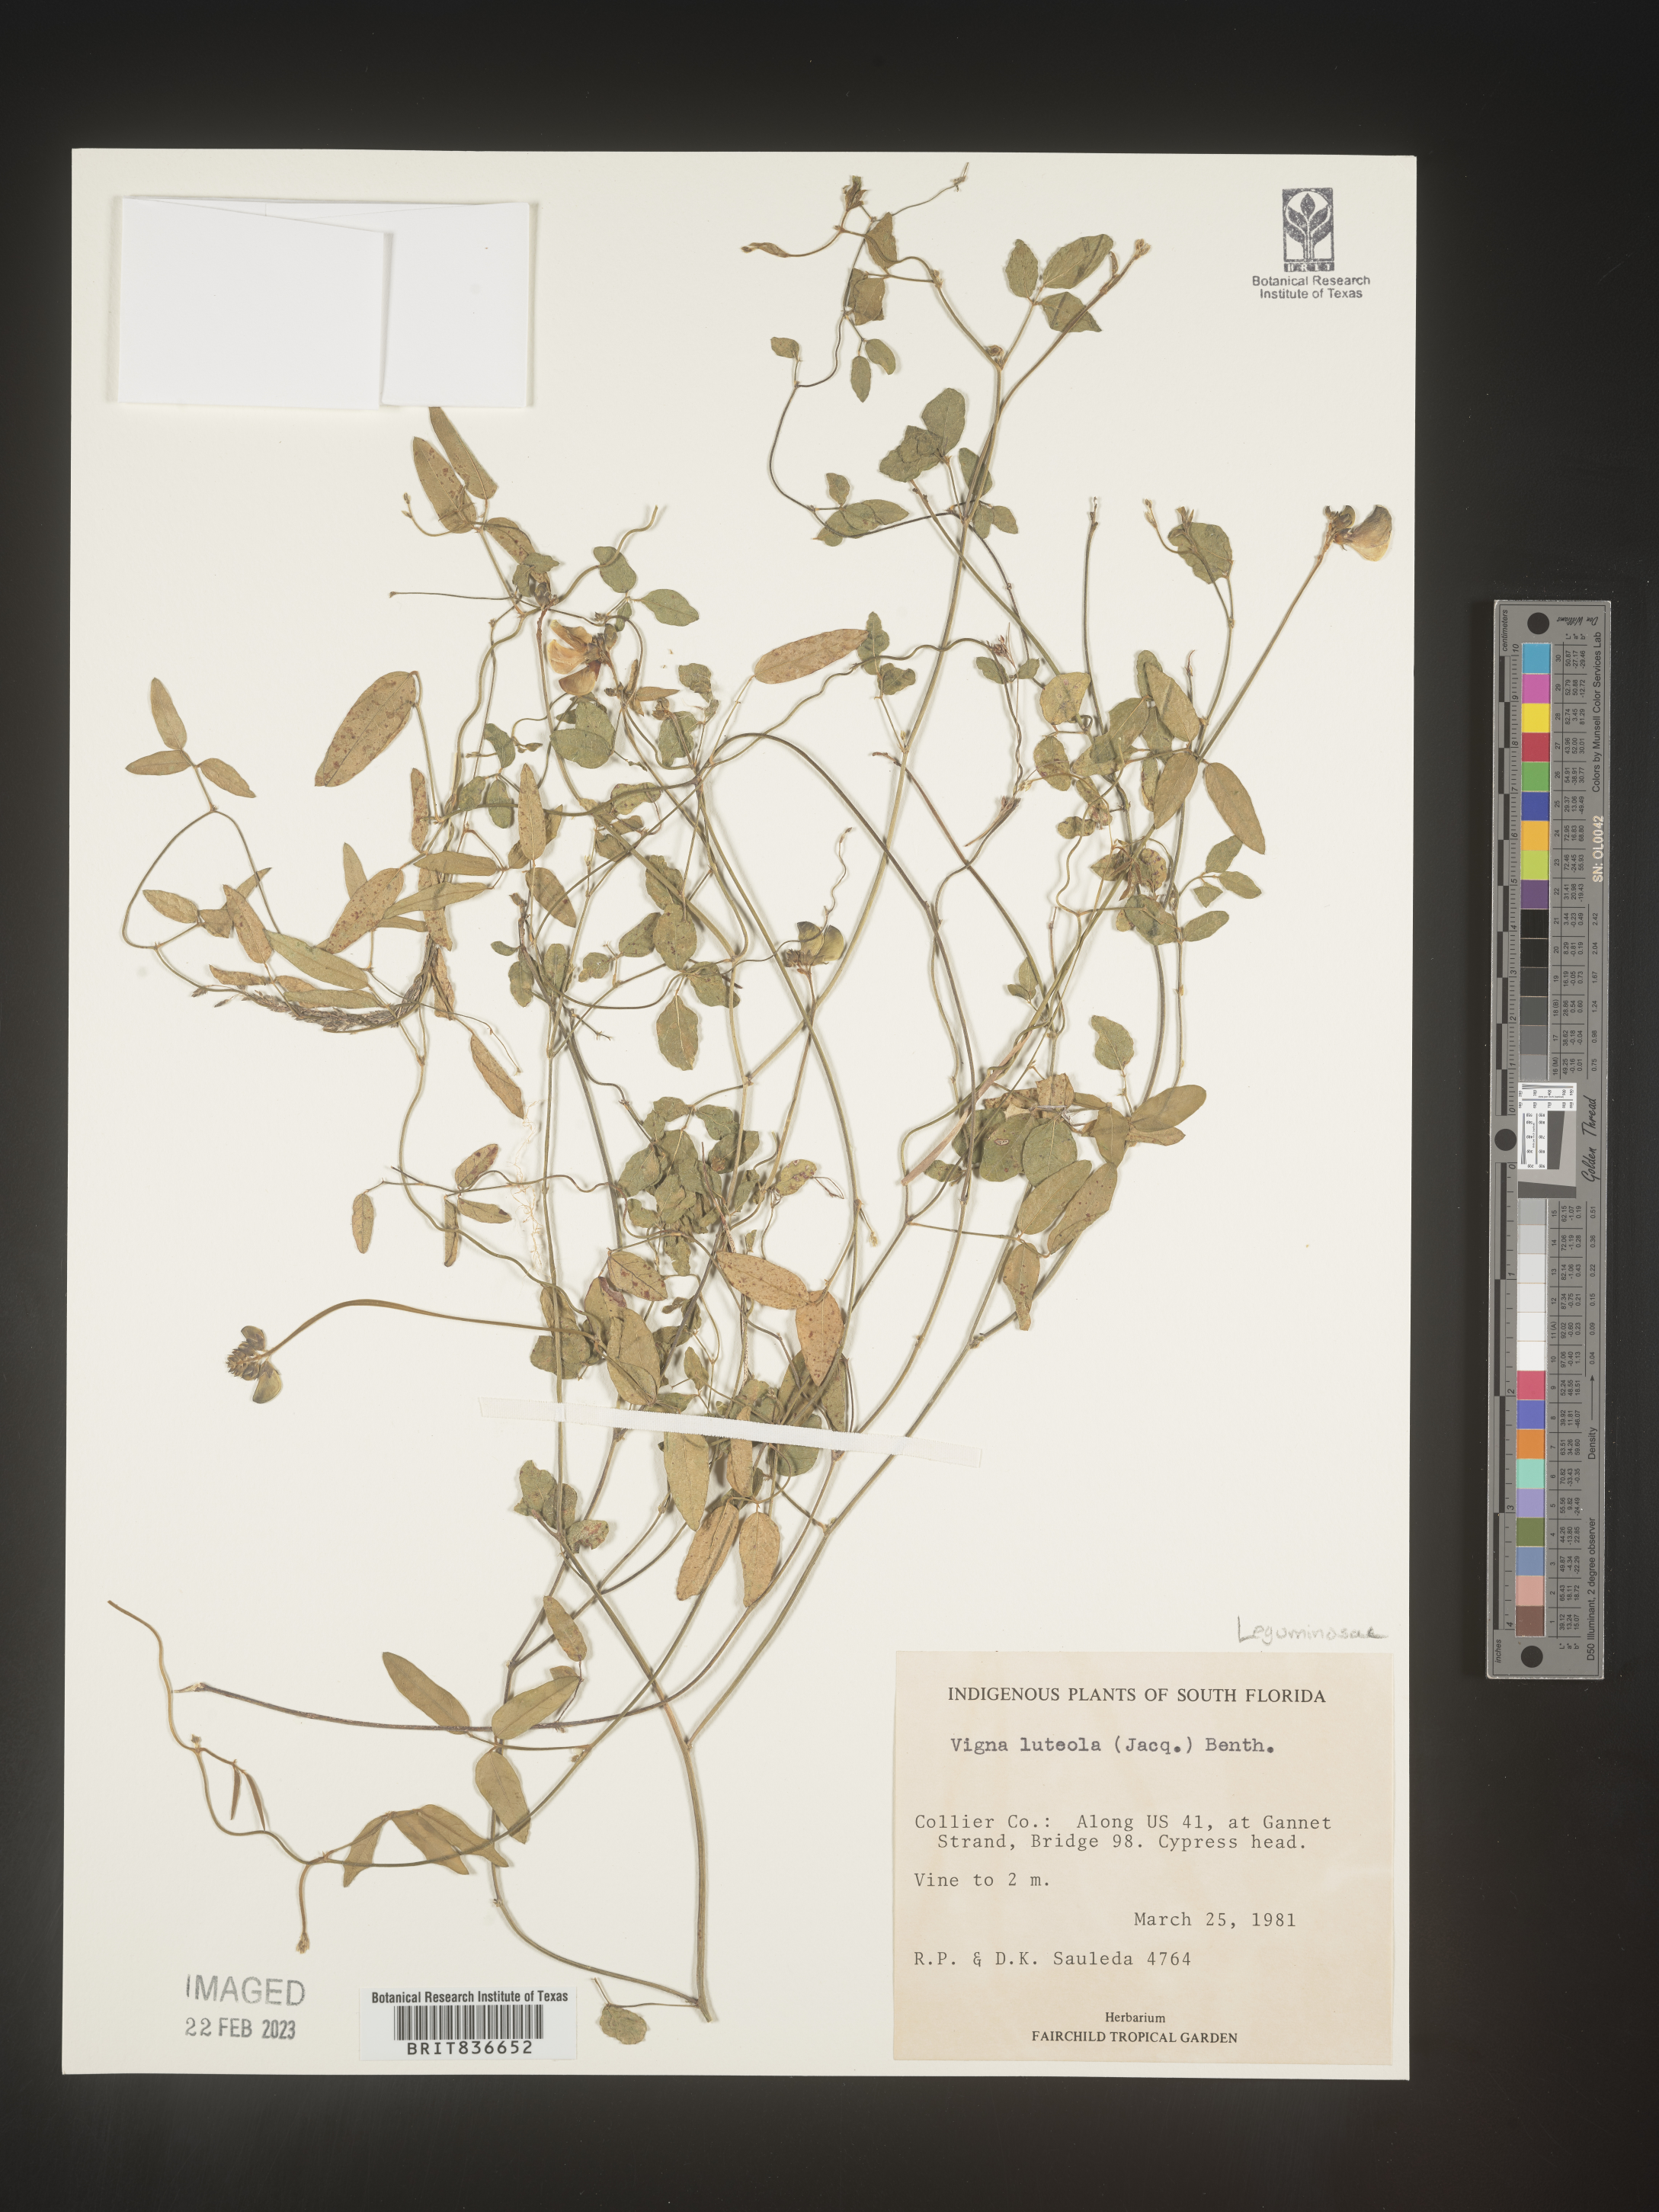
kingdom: Plantae
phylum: Tracheophyta
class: Magnoliopsida
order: Fabales
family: Fabaceae
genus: Vigna
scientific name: Vigna luteola
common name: Hairypod cowpea
